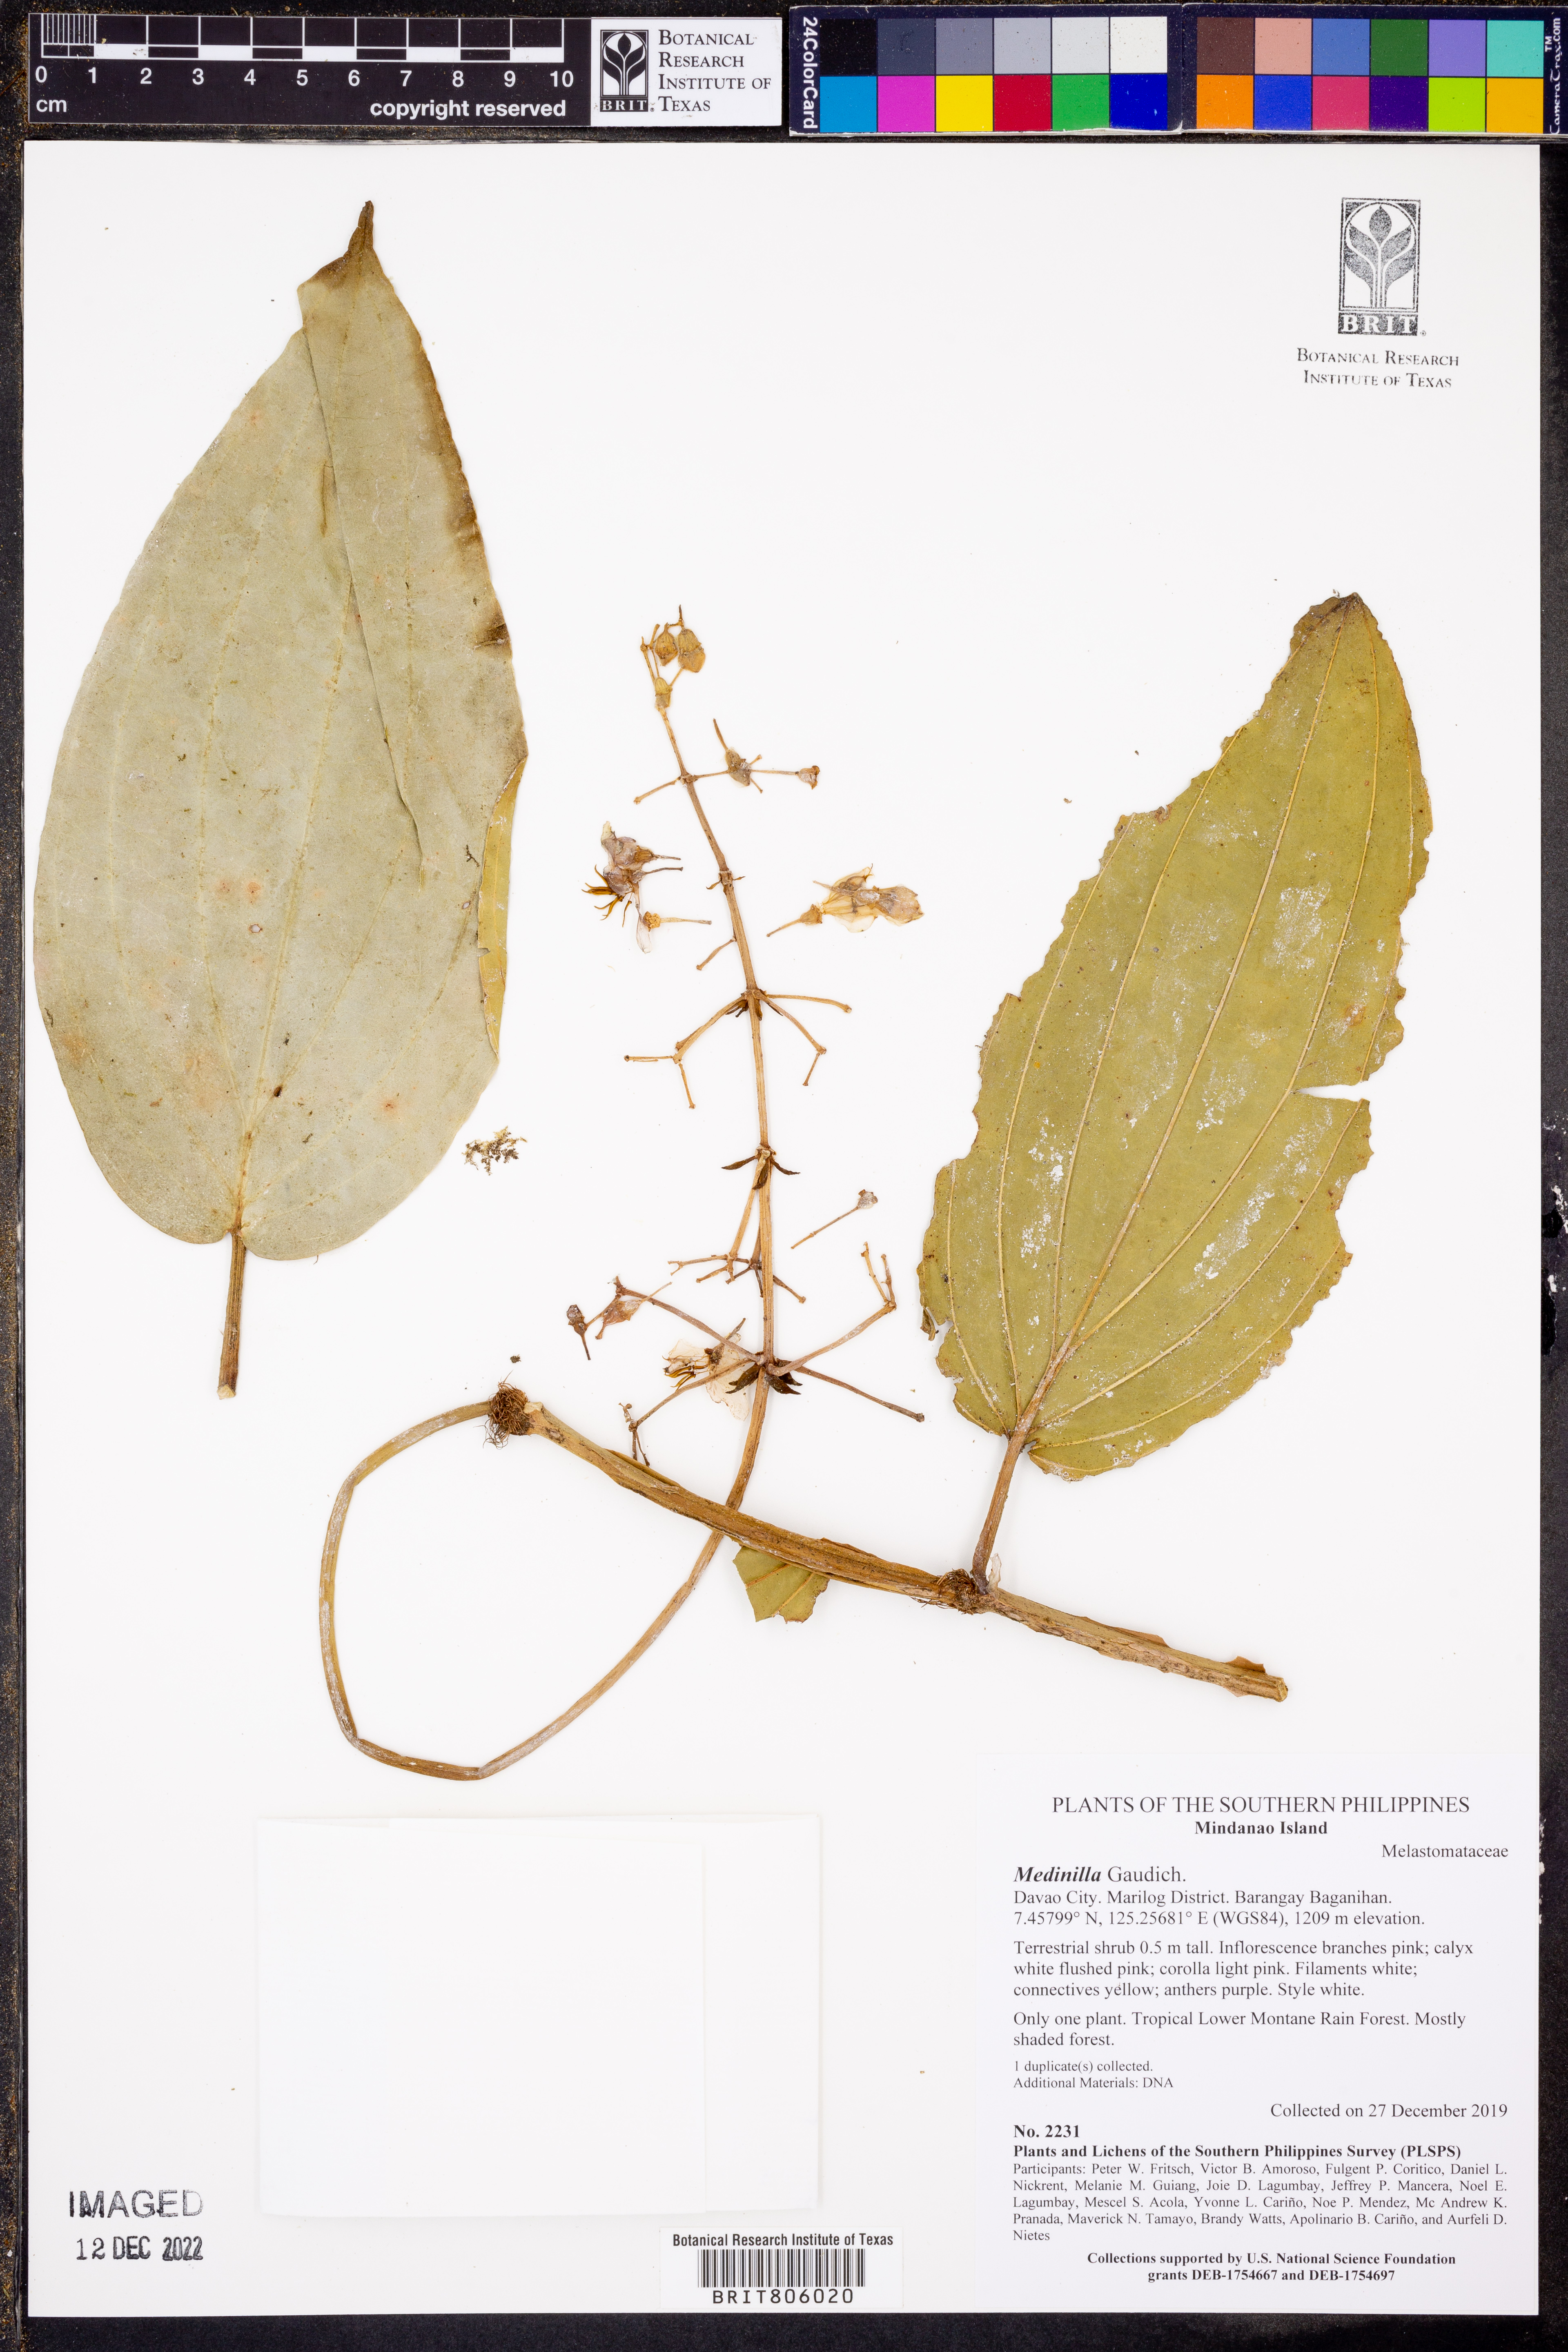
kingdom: Plantae
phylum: Tracheophyta
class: Magnoliopsida
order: Myrtales
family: Melastomataceae
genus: Medinilla
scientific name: Medinilla
